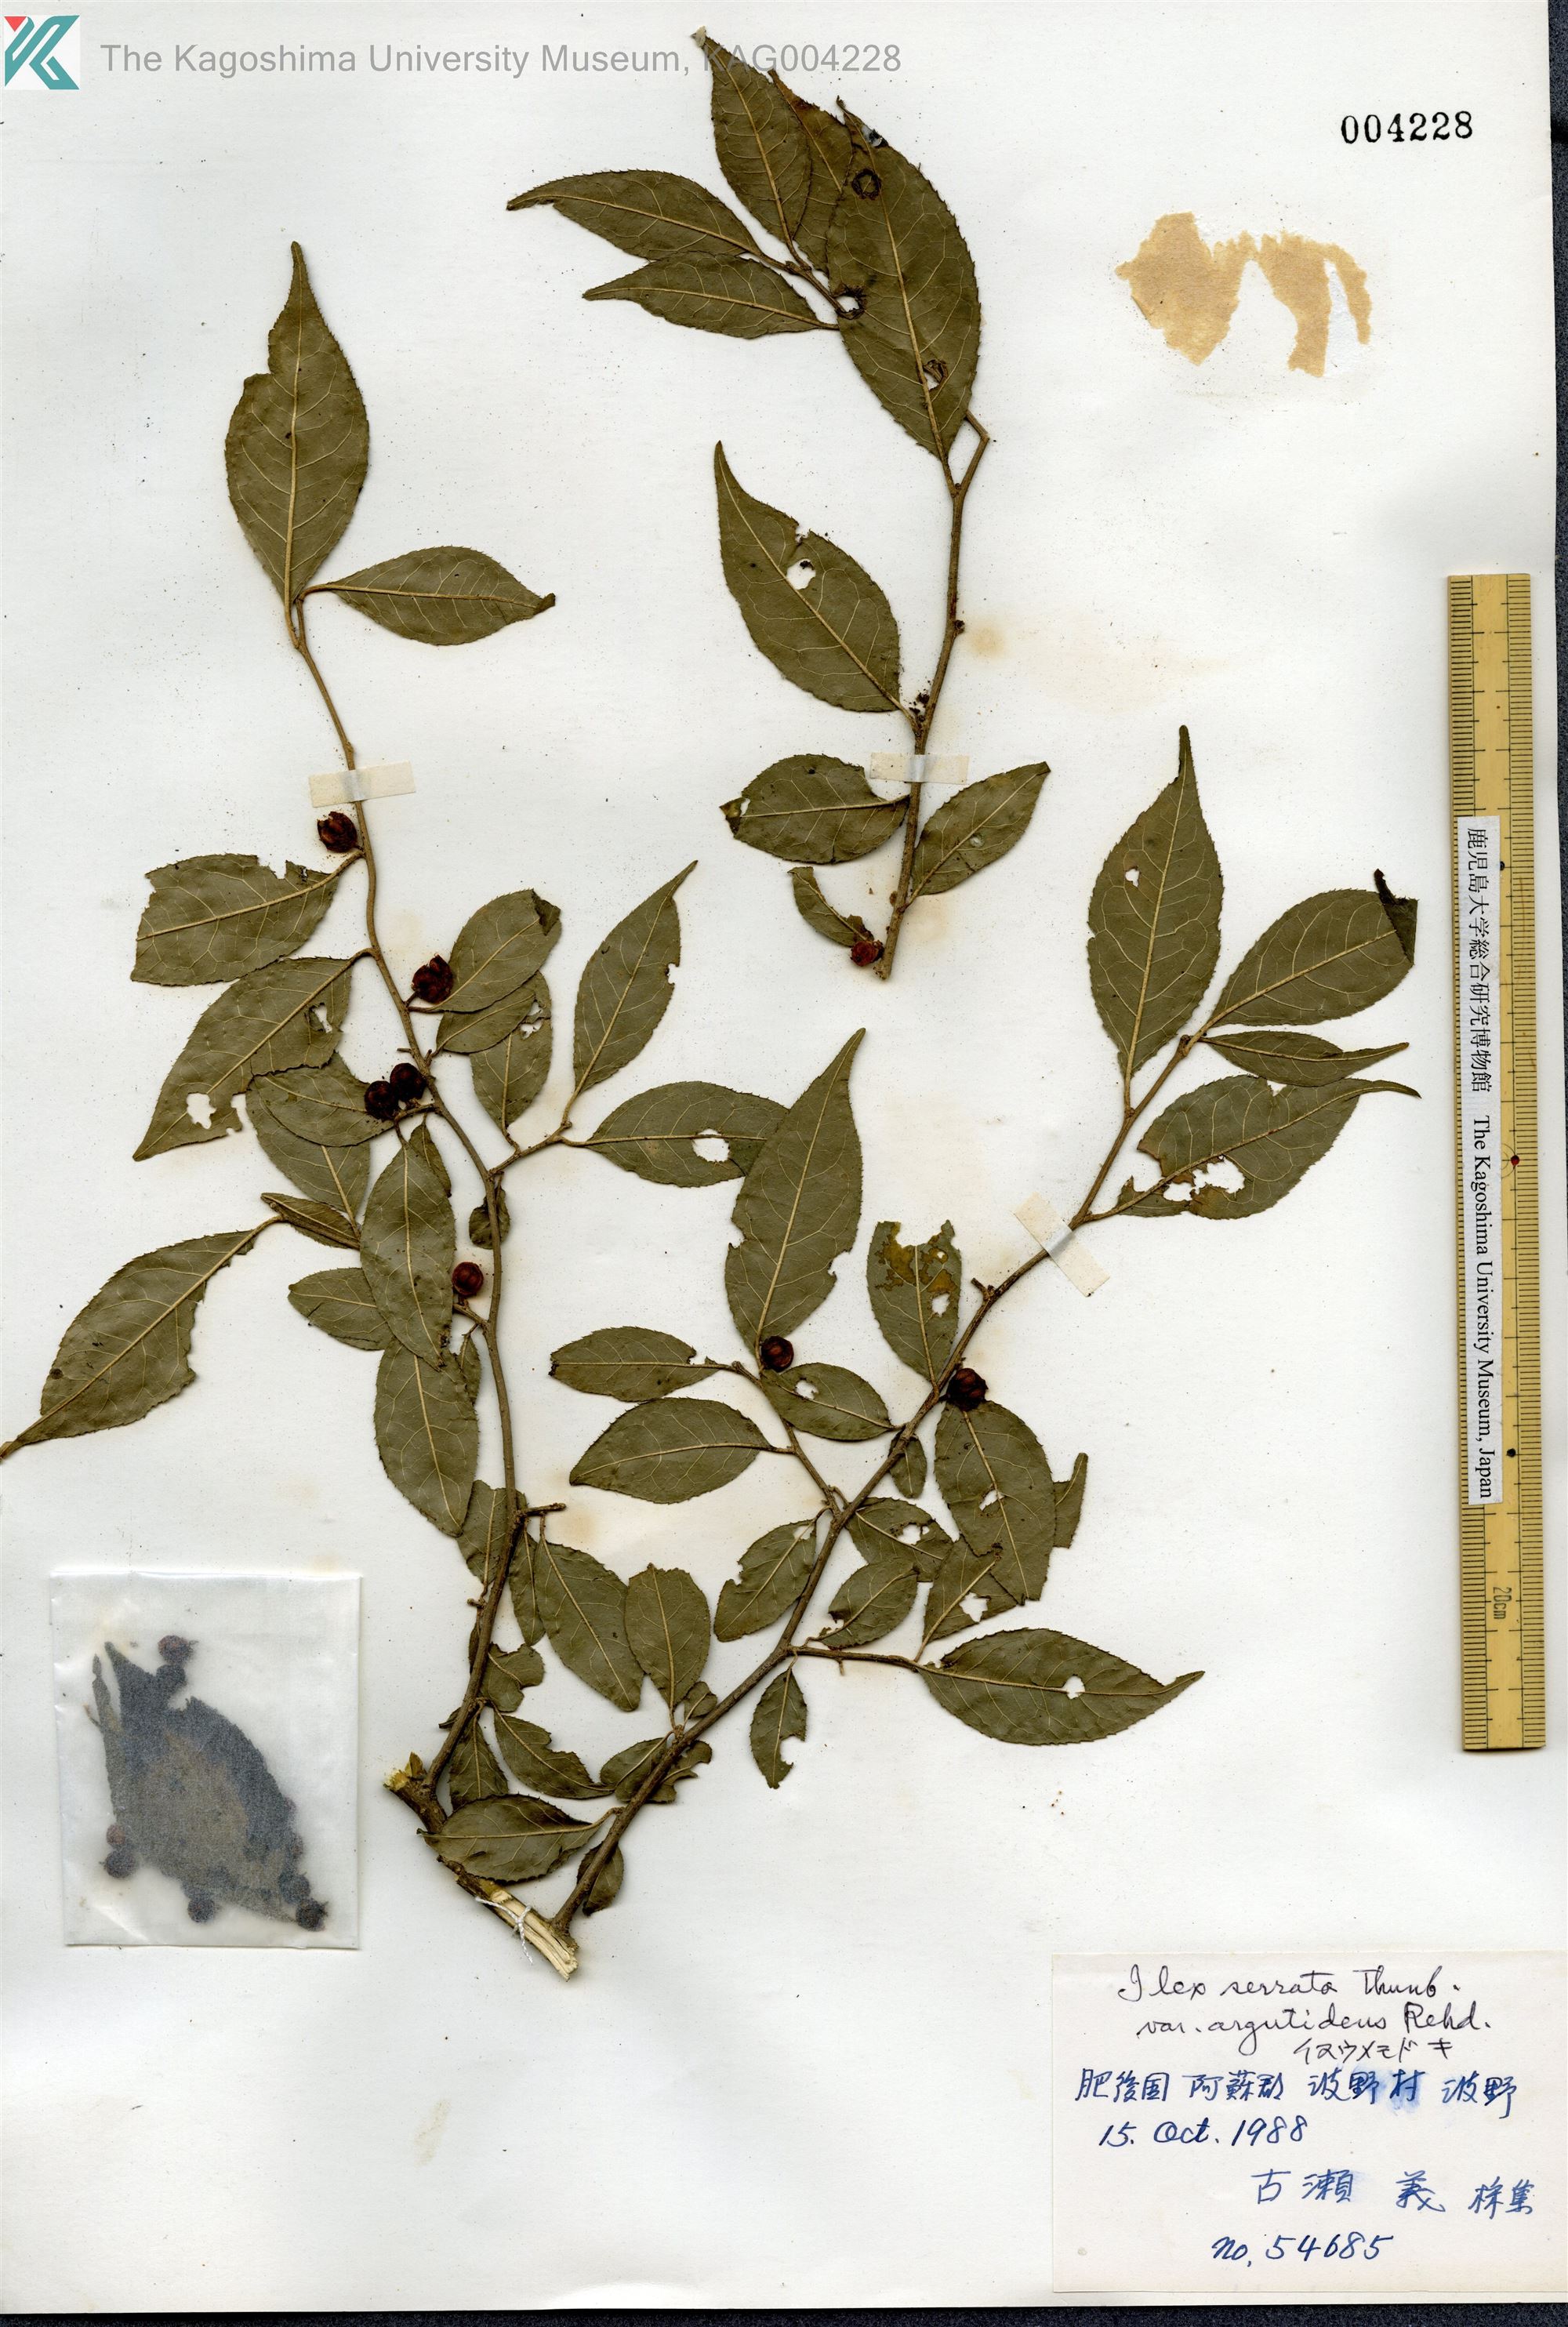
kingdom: Plantae
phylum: Tracheophyta
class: Magnoliopsida
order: Aquifoliales
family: Aquifoliaceae
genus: Ilex
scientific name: Ilex serrata
